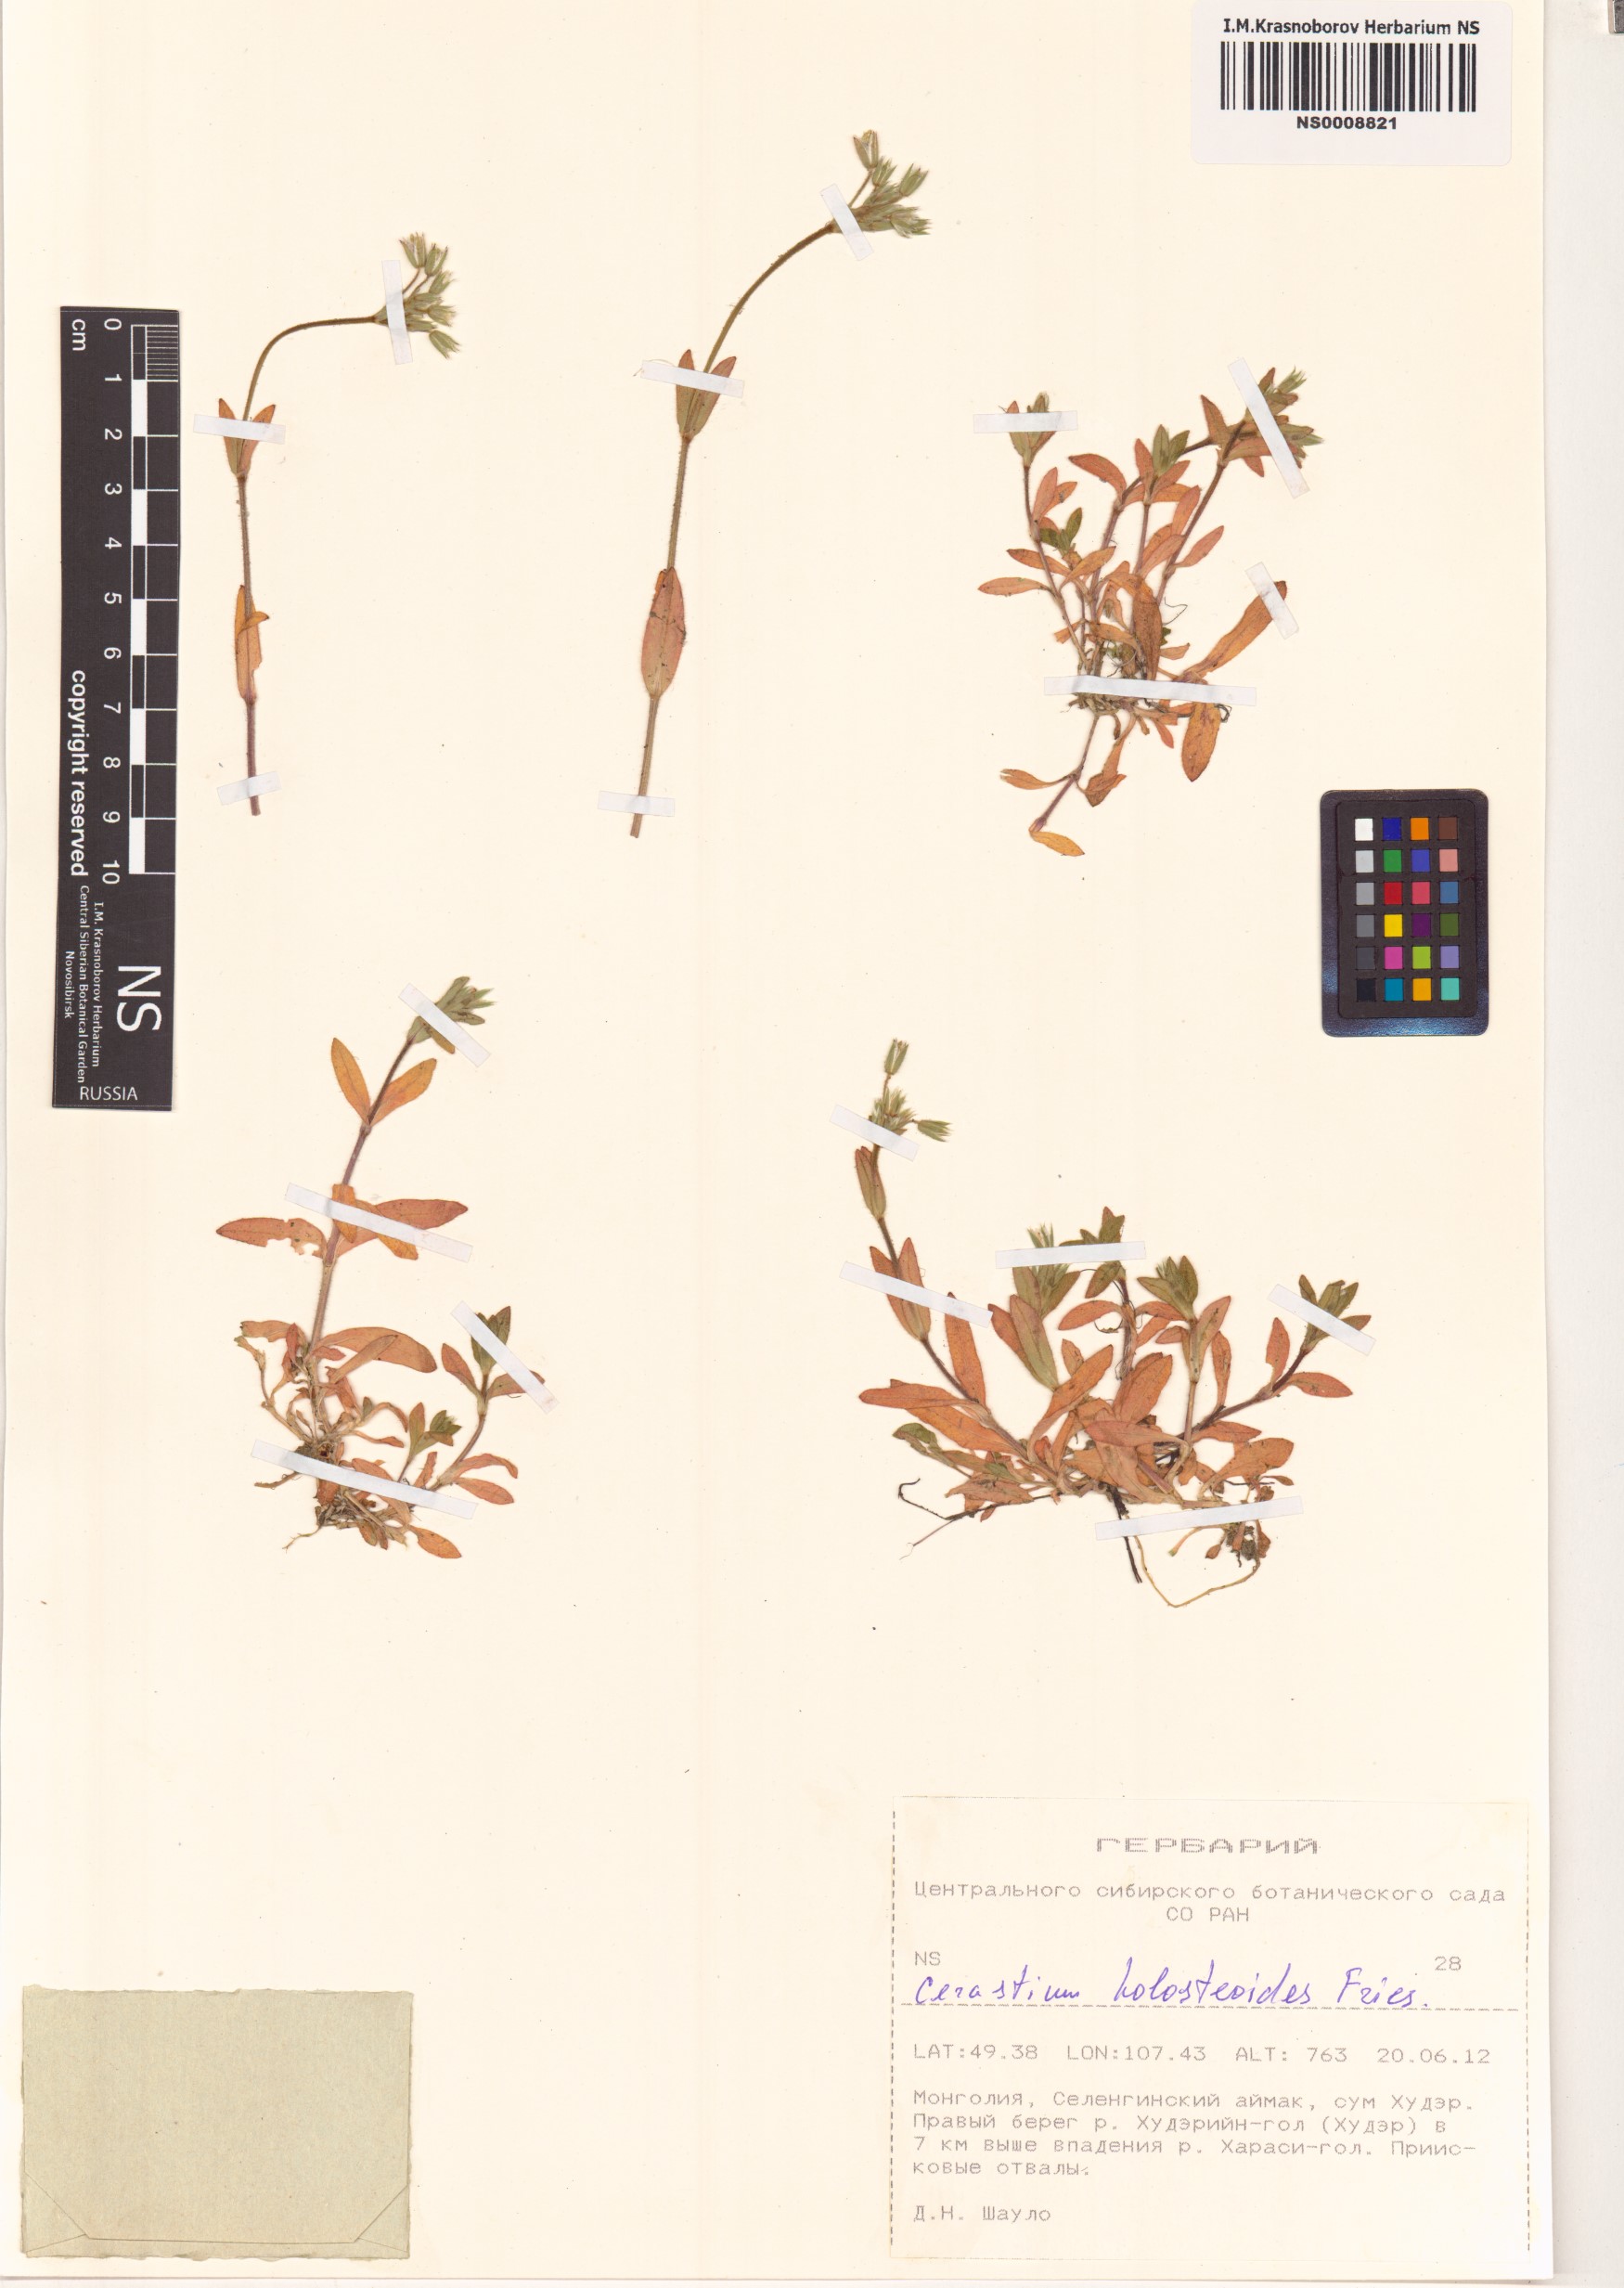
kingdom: Plantae
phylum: Tracheophyta
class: Magnoliopsida
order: Caryophyllales
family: Caryophyllaceae
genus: Cerastium
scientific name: Cerastium holosteoides
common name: Big chickweed
